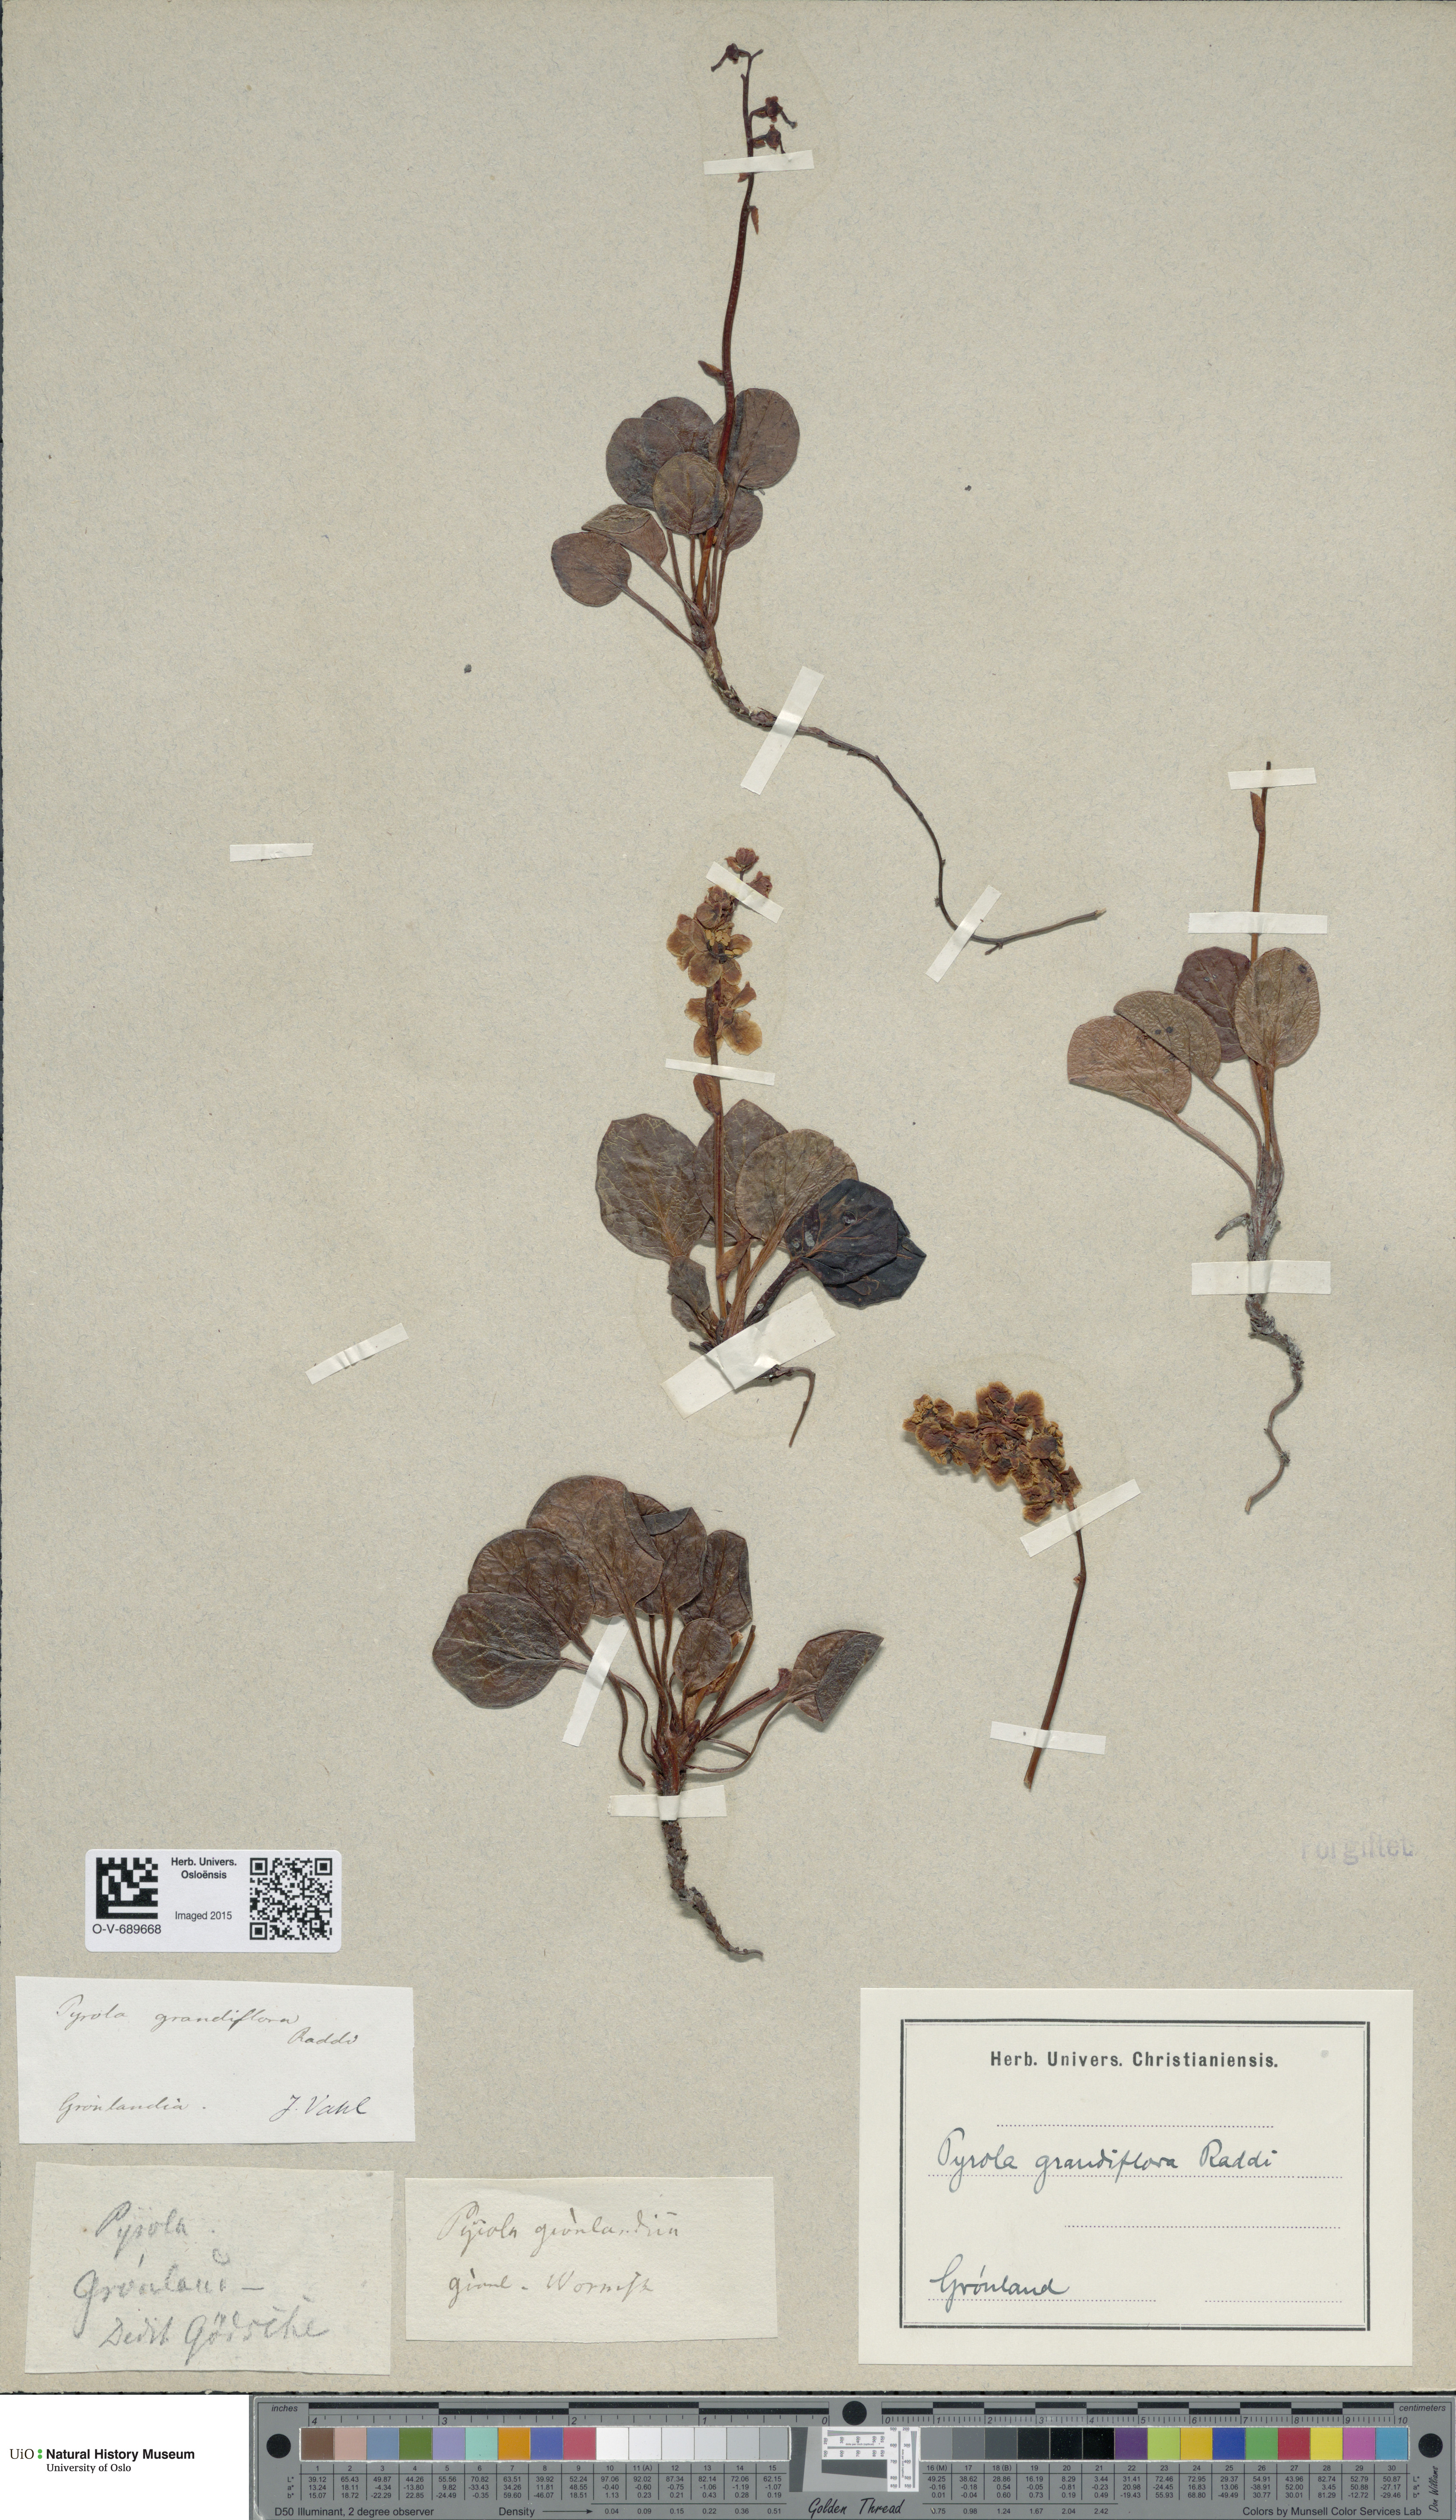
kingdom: Plantae
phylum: Tracheophyta
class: Magnoliopsida
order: Ericales
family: Ericaceae
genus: Pyrola
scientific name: Pyrola grandiflora
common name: Arctic pyrola
